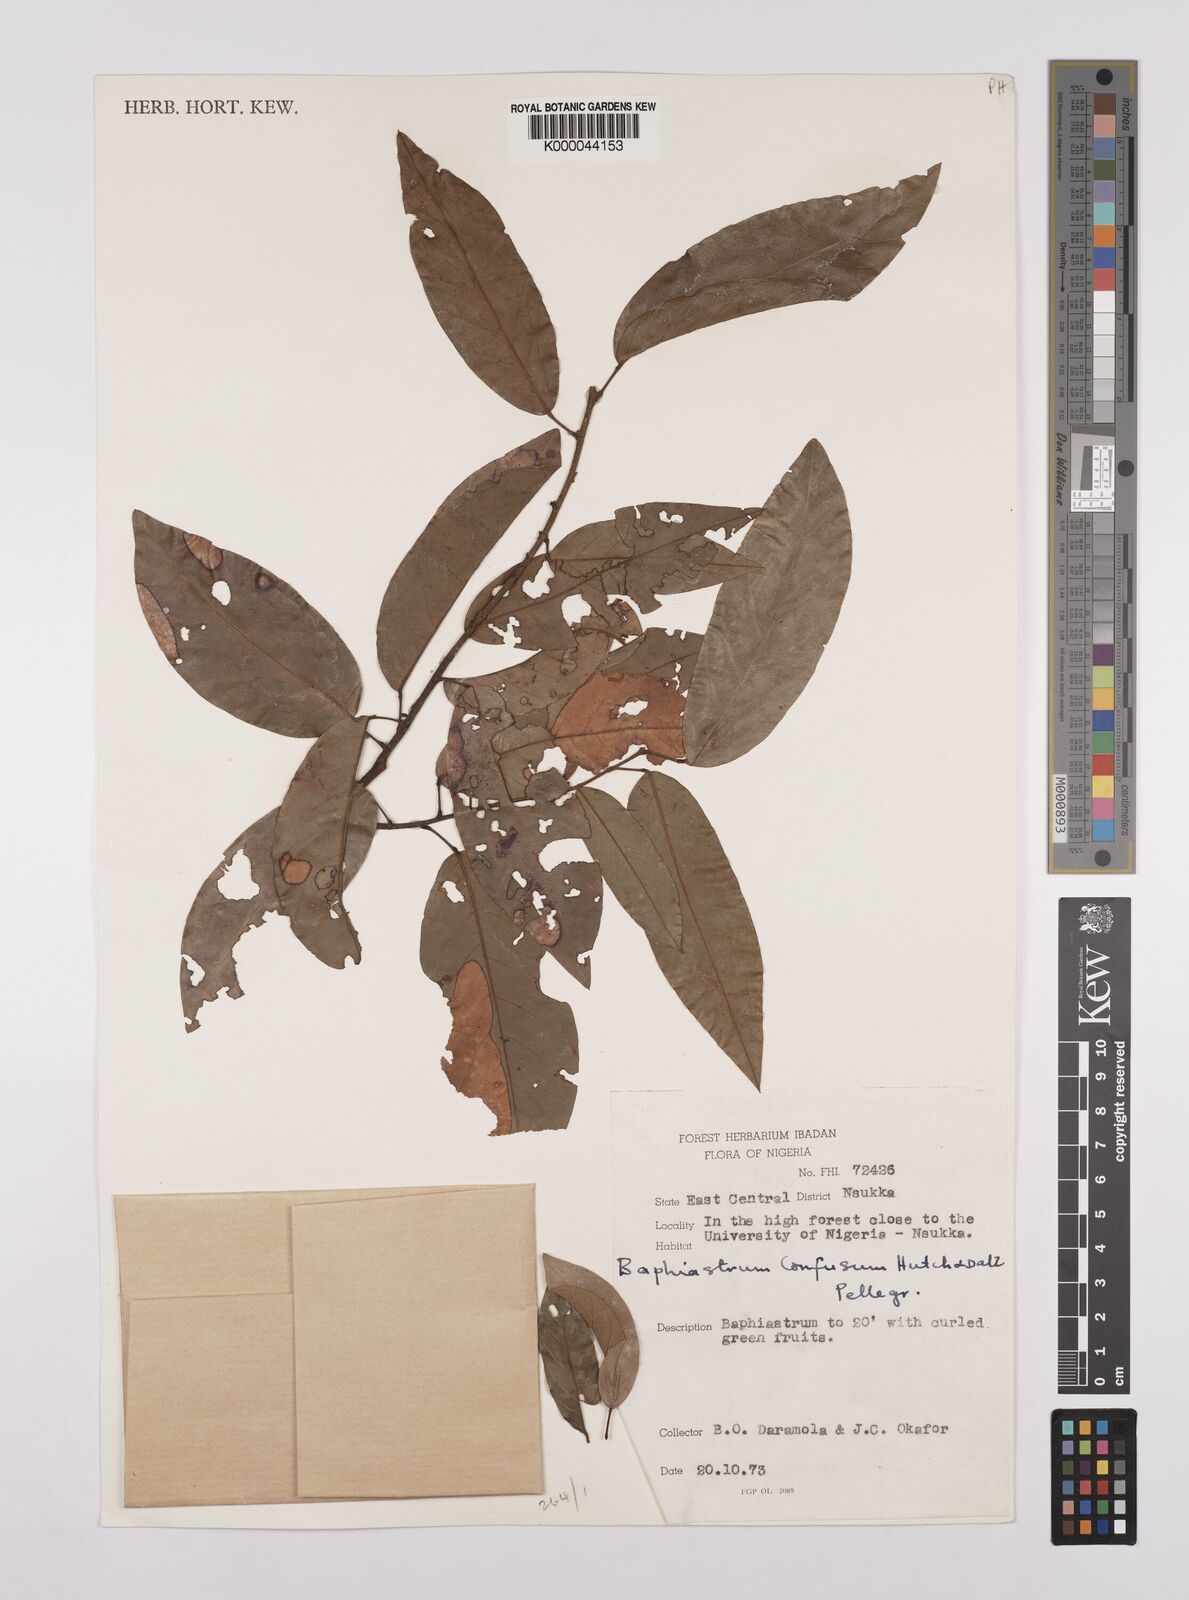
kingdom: Plantae
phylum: Tracheophyta
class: Magnoliopsida
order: Fabales
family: Fabaceae
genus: Airyantha
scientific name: Airyantha schweinfurthii
